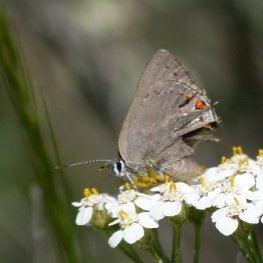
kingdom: Animalia
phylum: Arthropoda
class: Insecta
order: Lepidoptera
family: Lycaenidae
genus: Strymon
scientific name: Strymon acadica
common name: California Hairstreak
